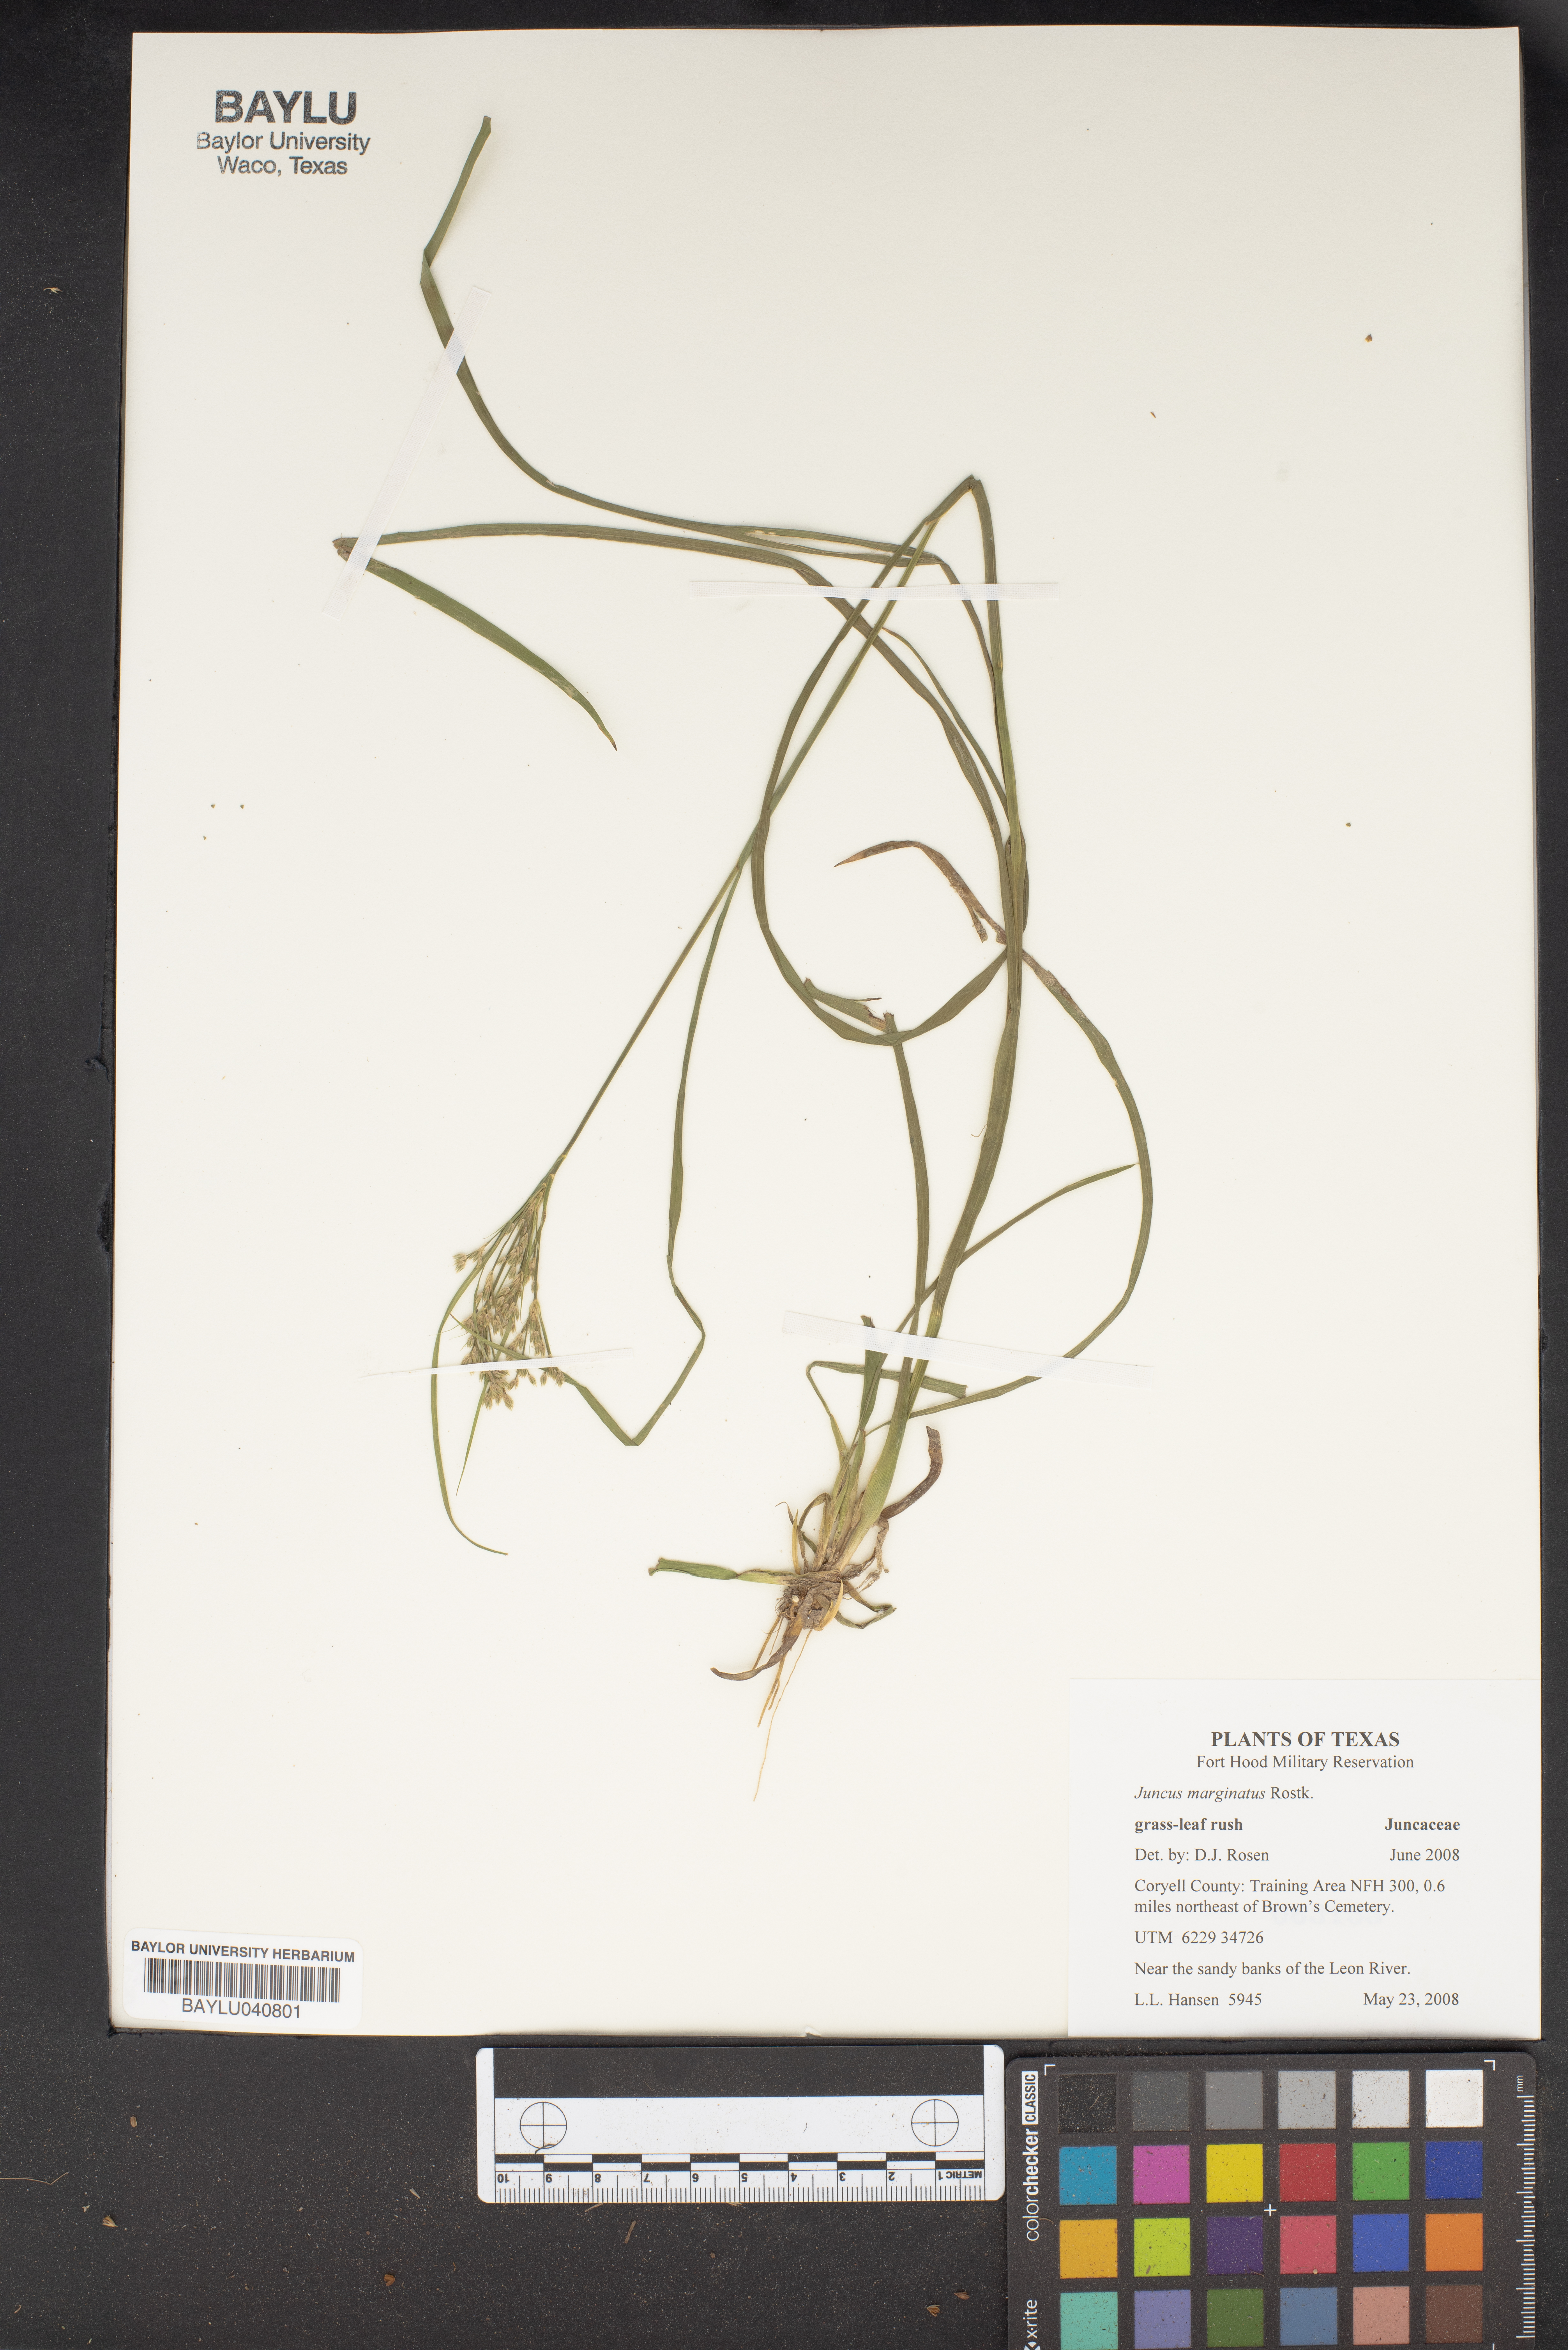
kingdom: Plantae
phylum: Tracheophyta
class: Liliopsida
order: Poales
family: Juncaceae
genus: Juncus
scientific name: Juncus marginatus
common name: Grass-leaf rush
